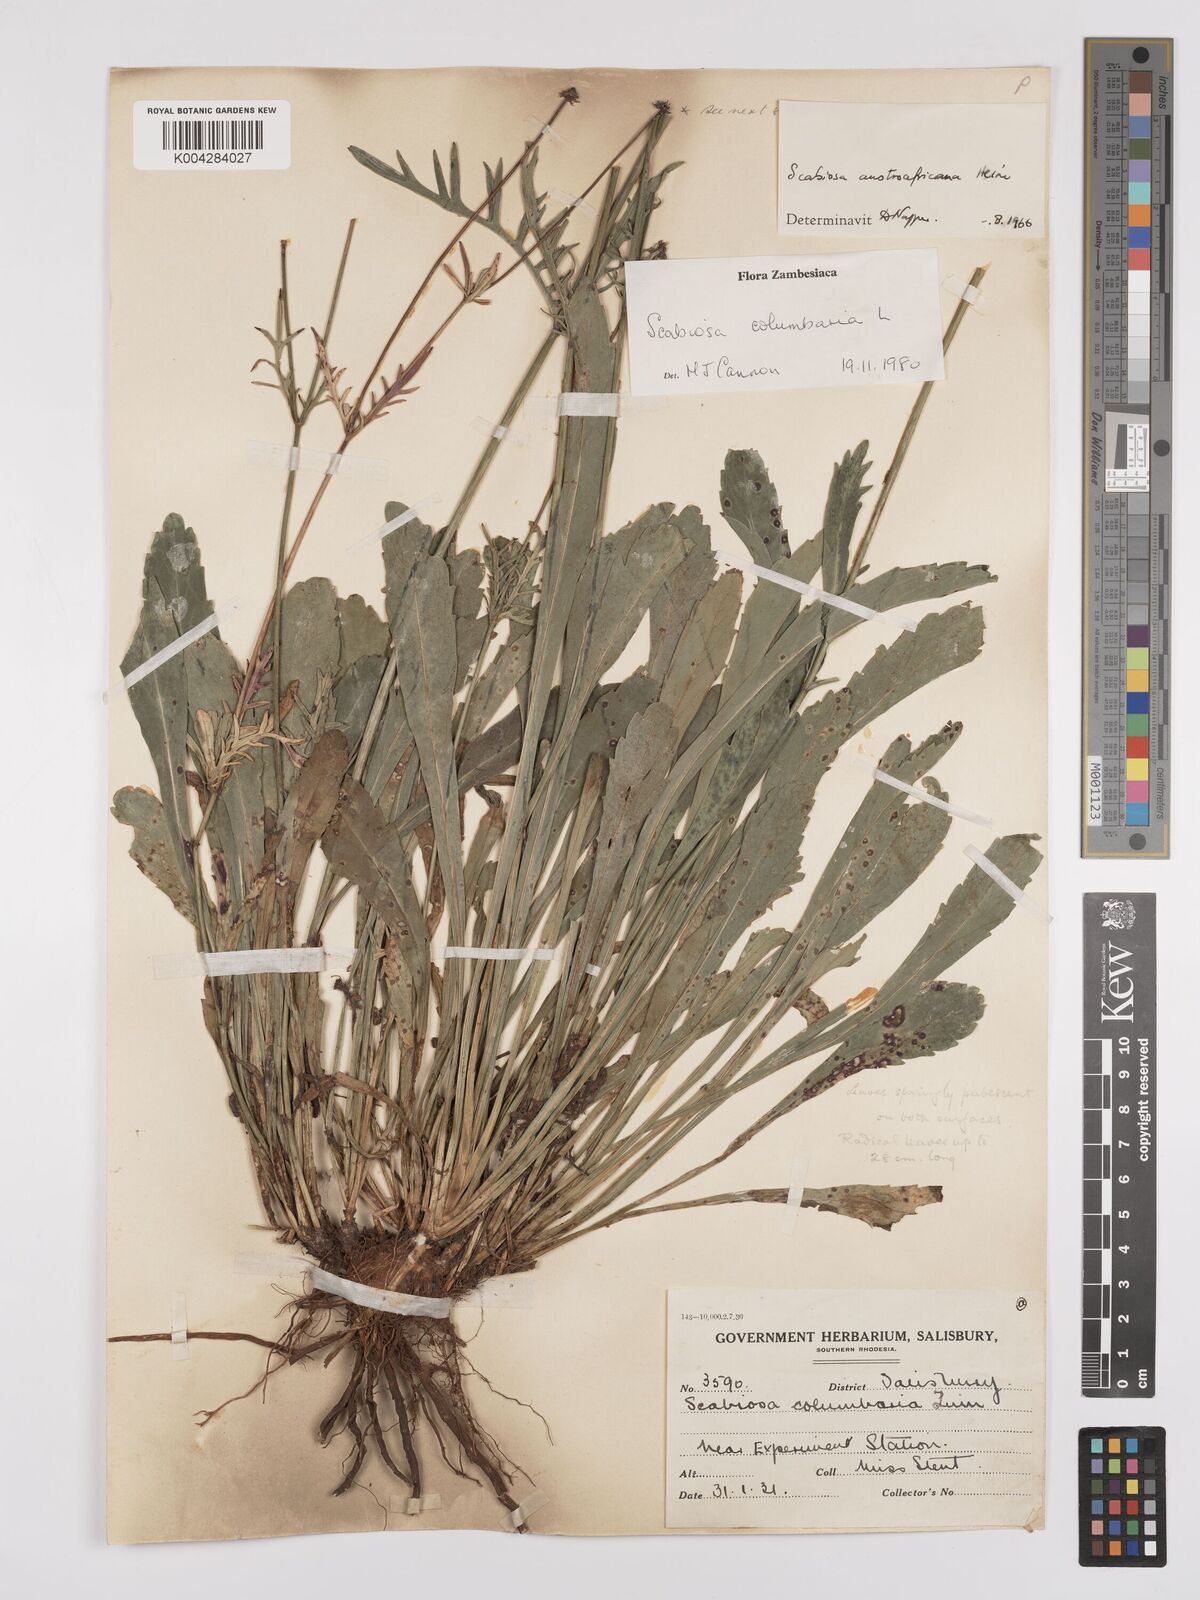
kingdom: Plantae
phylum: Tracheophyta
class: Magnoliopsida
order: Dipsacales
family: Caprifoliaceae
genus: Scabiosa
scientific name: Scabiosa austroafricana
